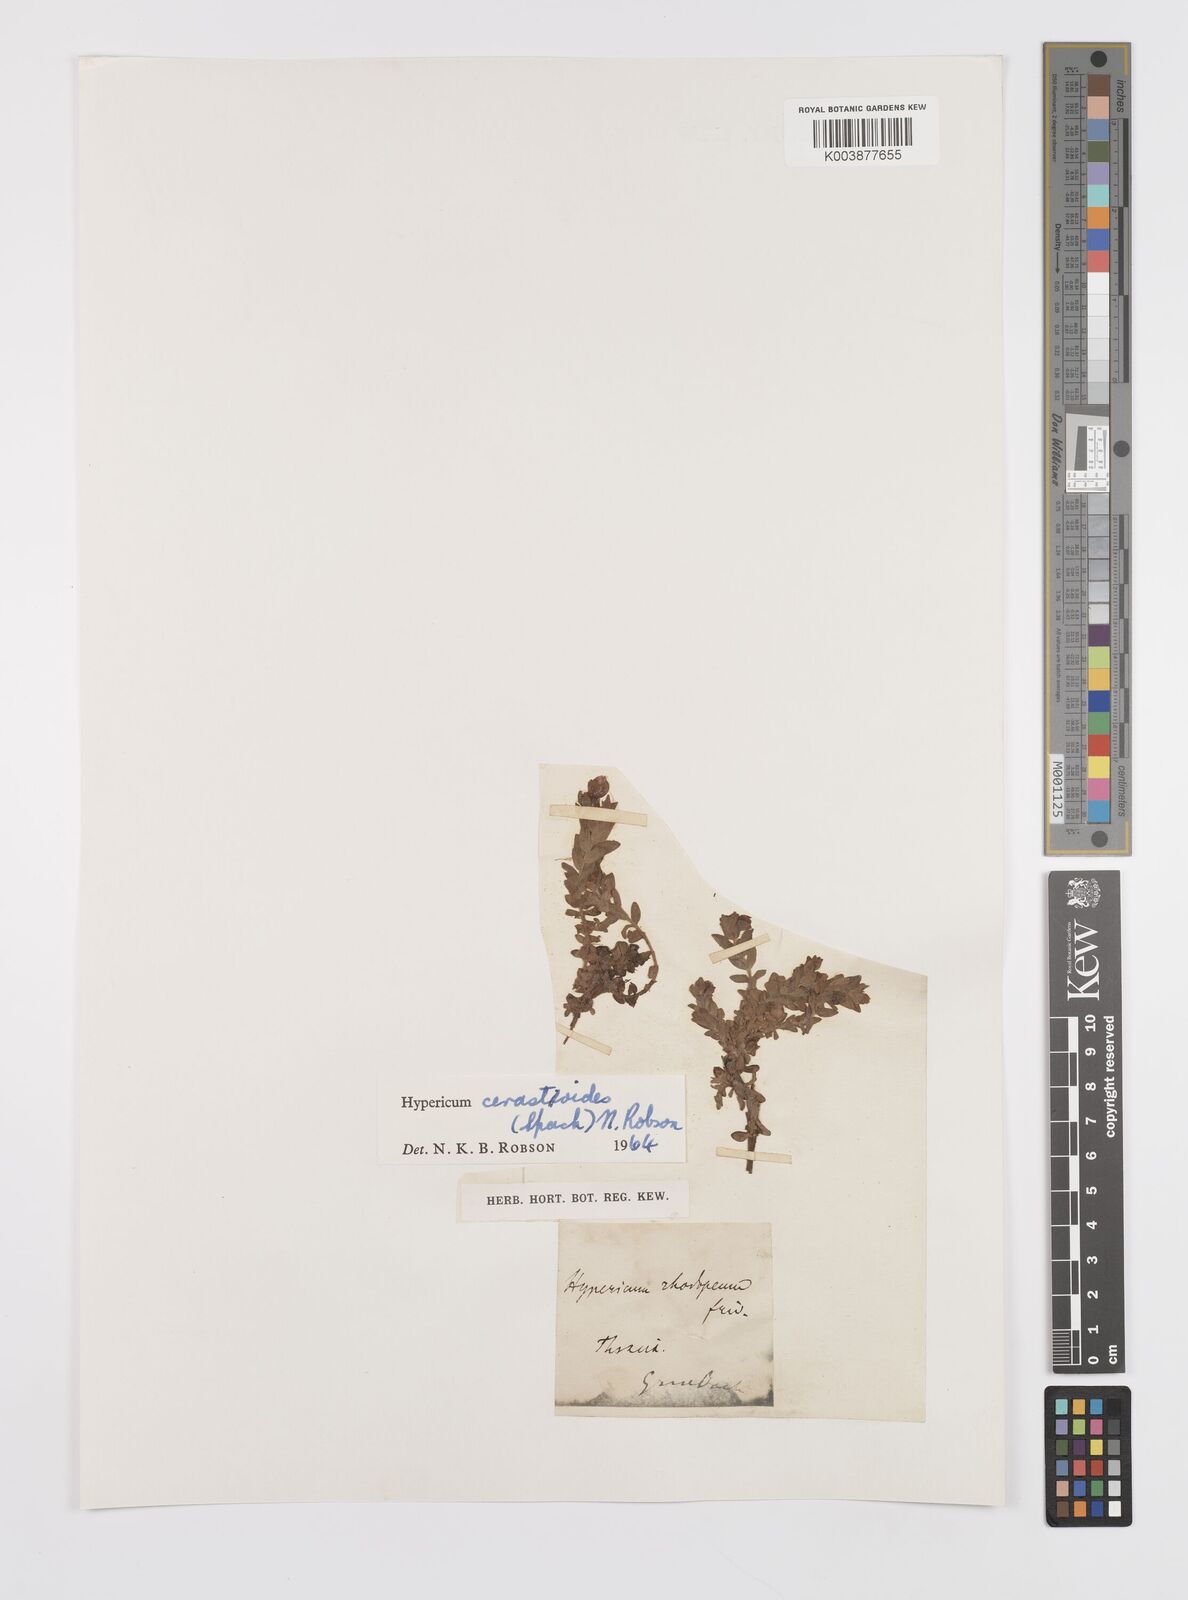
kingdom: Plantae
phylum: Tracheophyta
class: Magnoliopsida
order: Malpighiales
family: Hypericaceae
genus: Hypericum
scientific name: Hypericum cerastoides
